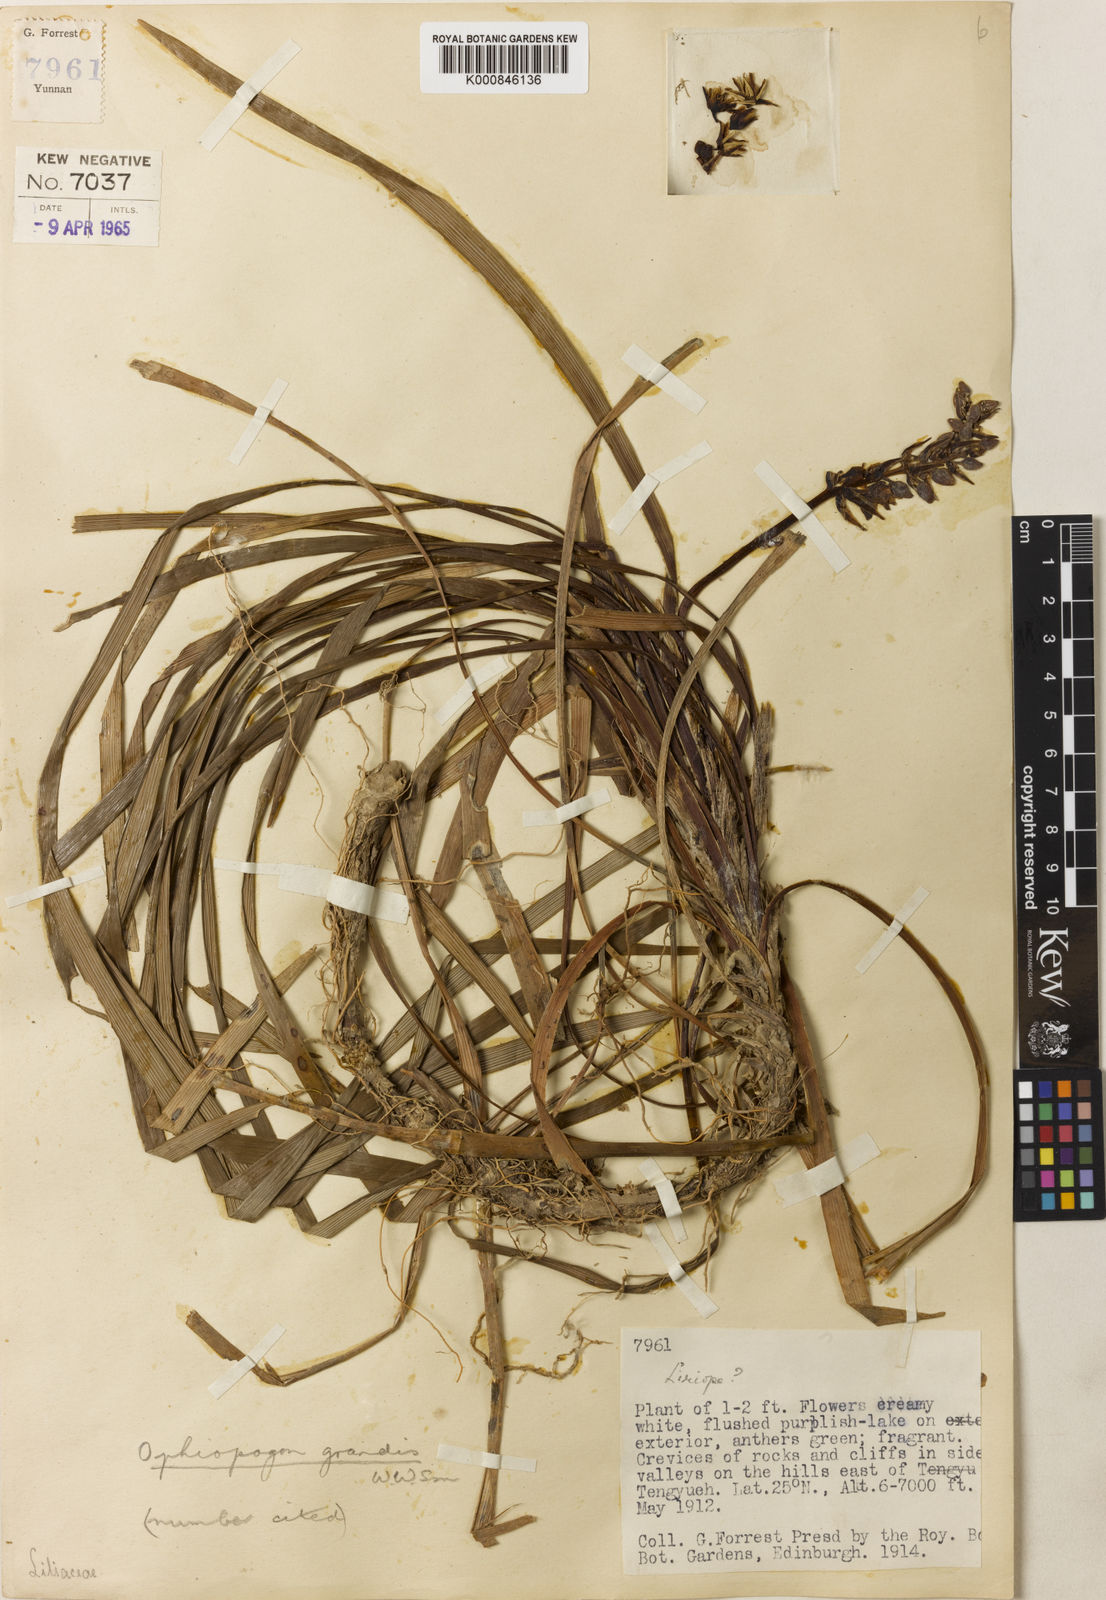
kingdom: Plantae
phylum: Tracheophyta
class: Liliopsida
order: Asparagales
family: Asparagaceae
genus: Ophiopogon
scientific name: Ophiopogon grandis
